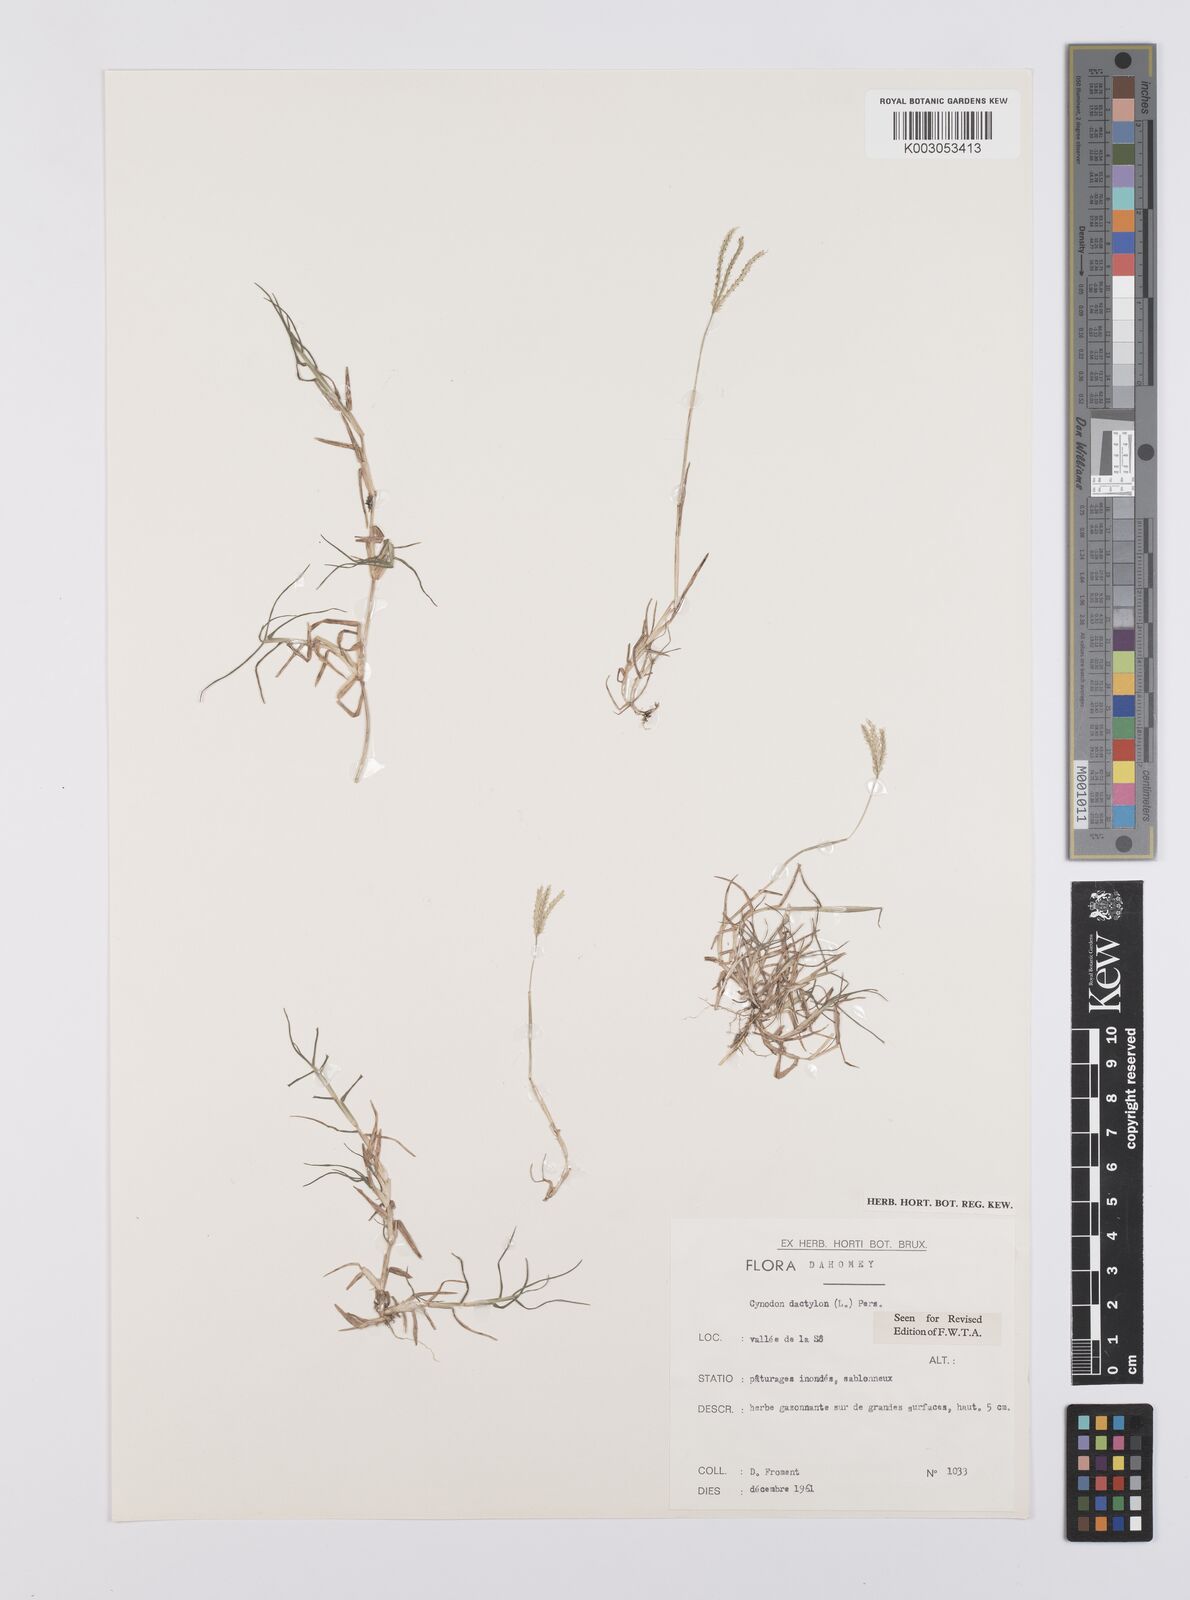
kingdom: Plantae
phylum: Tracheophyta
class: Liliopsida
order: Poales
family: Poaceae
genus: Cynodon
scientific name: Cynodon dactylon
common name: Bermuda grass
